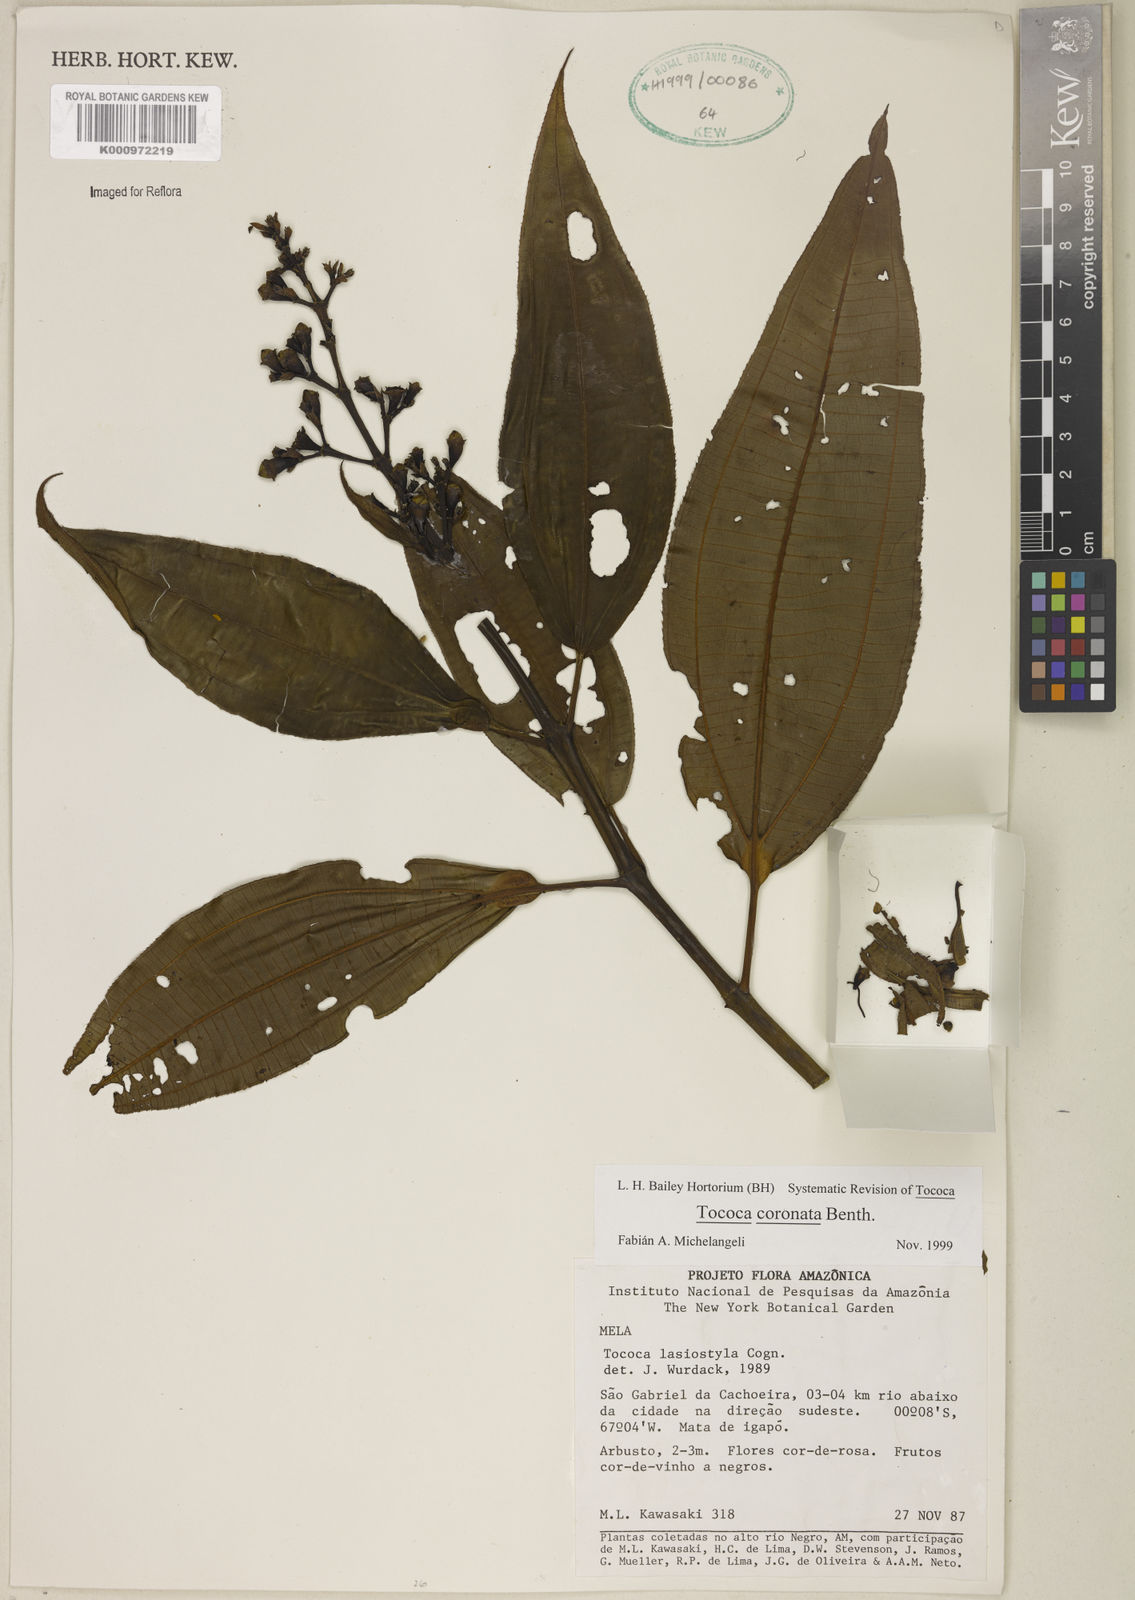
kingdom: Plantae
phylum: Tracheophyta
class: Magnoliopsida
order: Myrtales
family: Melastomataceae
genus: Miconia
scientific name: Miconia tococoronata
